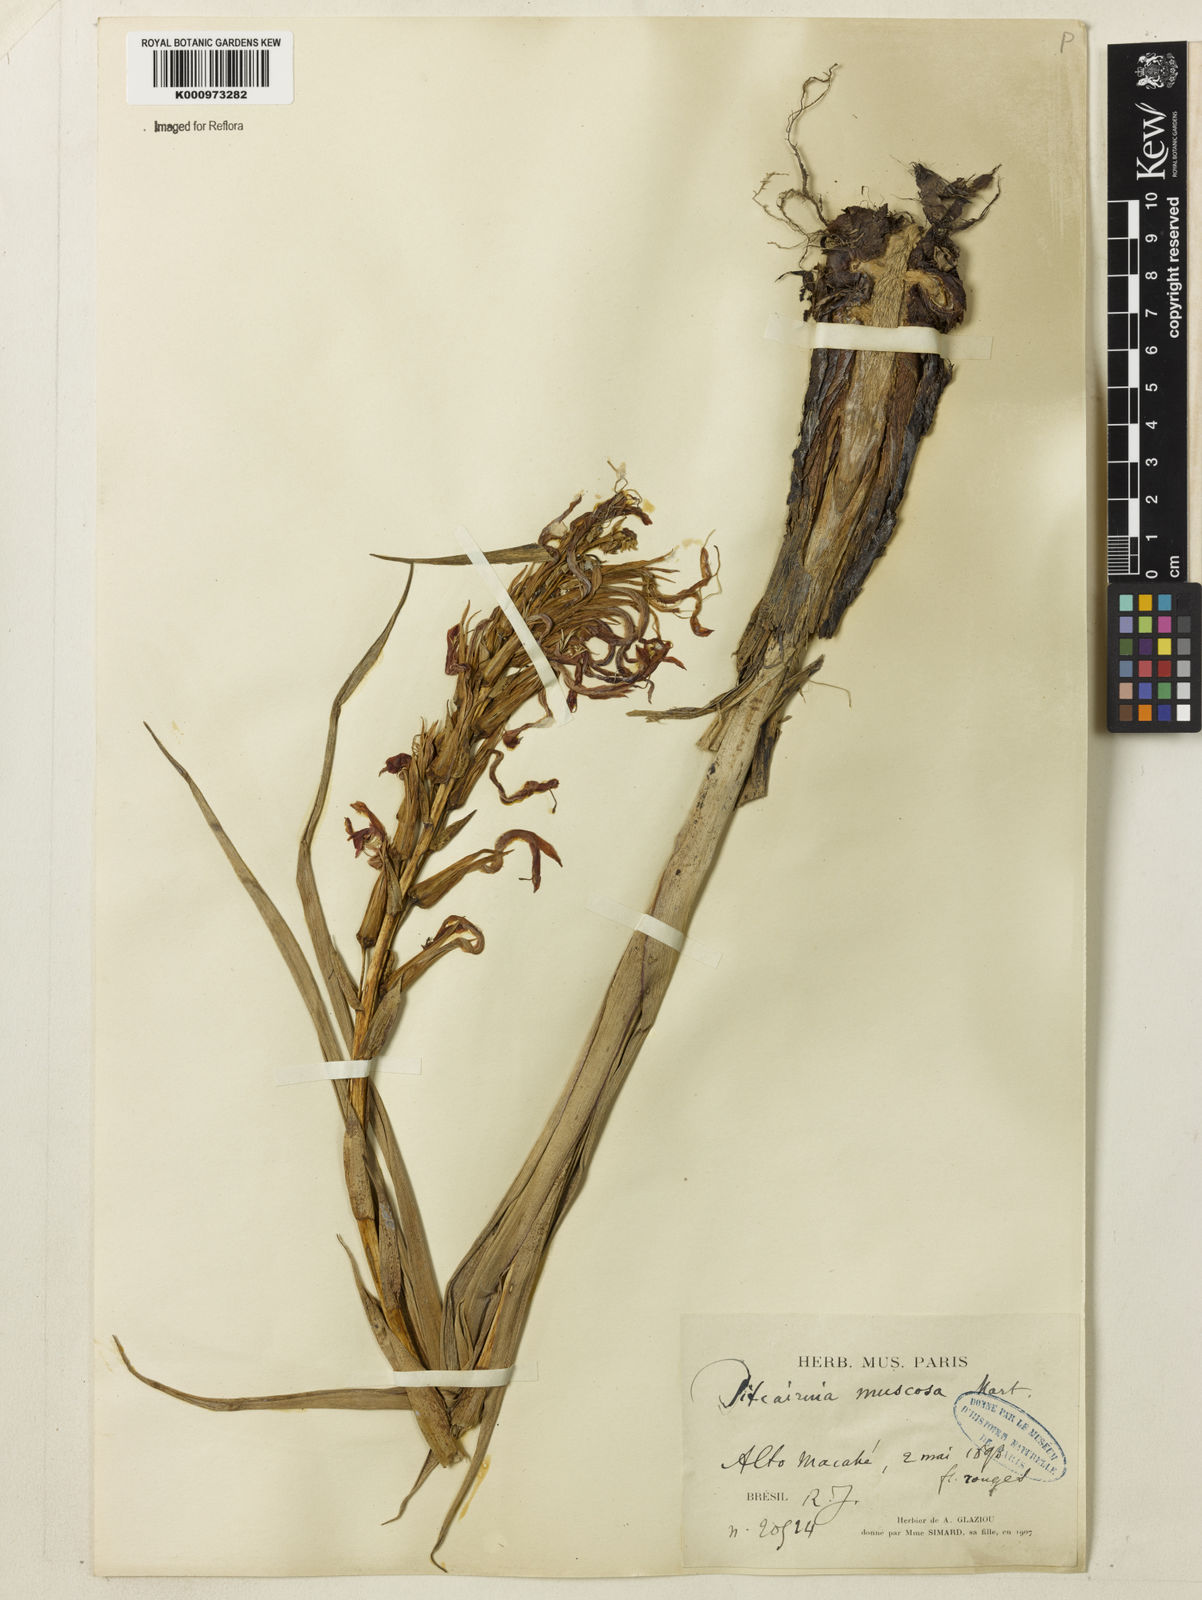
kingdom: Plantae
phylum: Tracheophyta
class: Liliopsida
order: Poales
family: Bromeliaceae
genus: Pitcairnia
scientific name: Pitcairnia flammea
